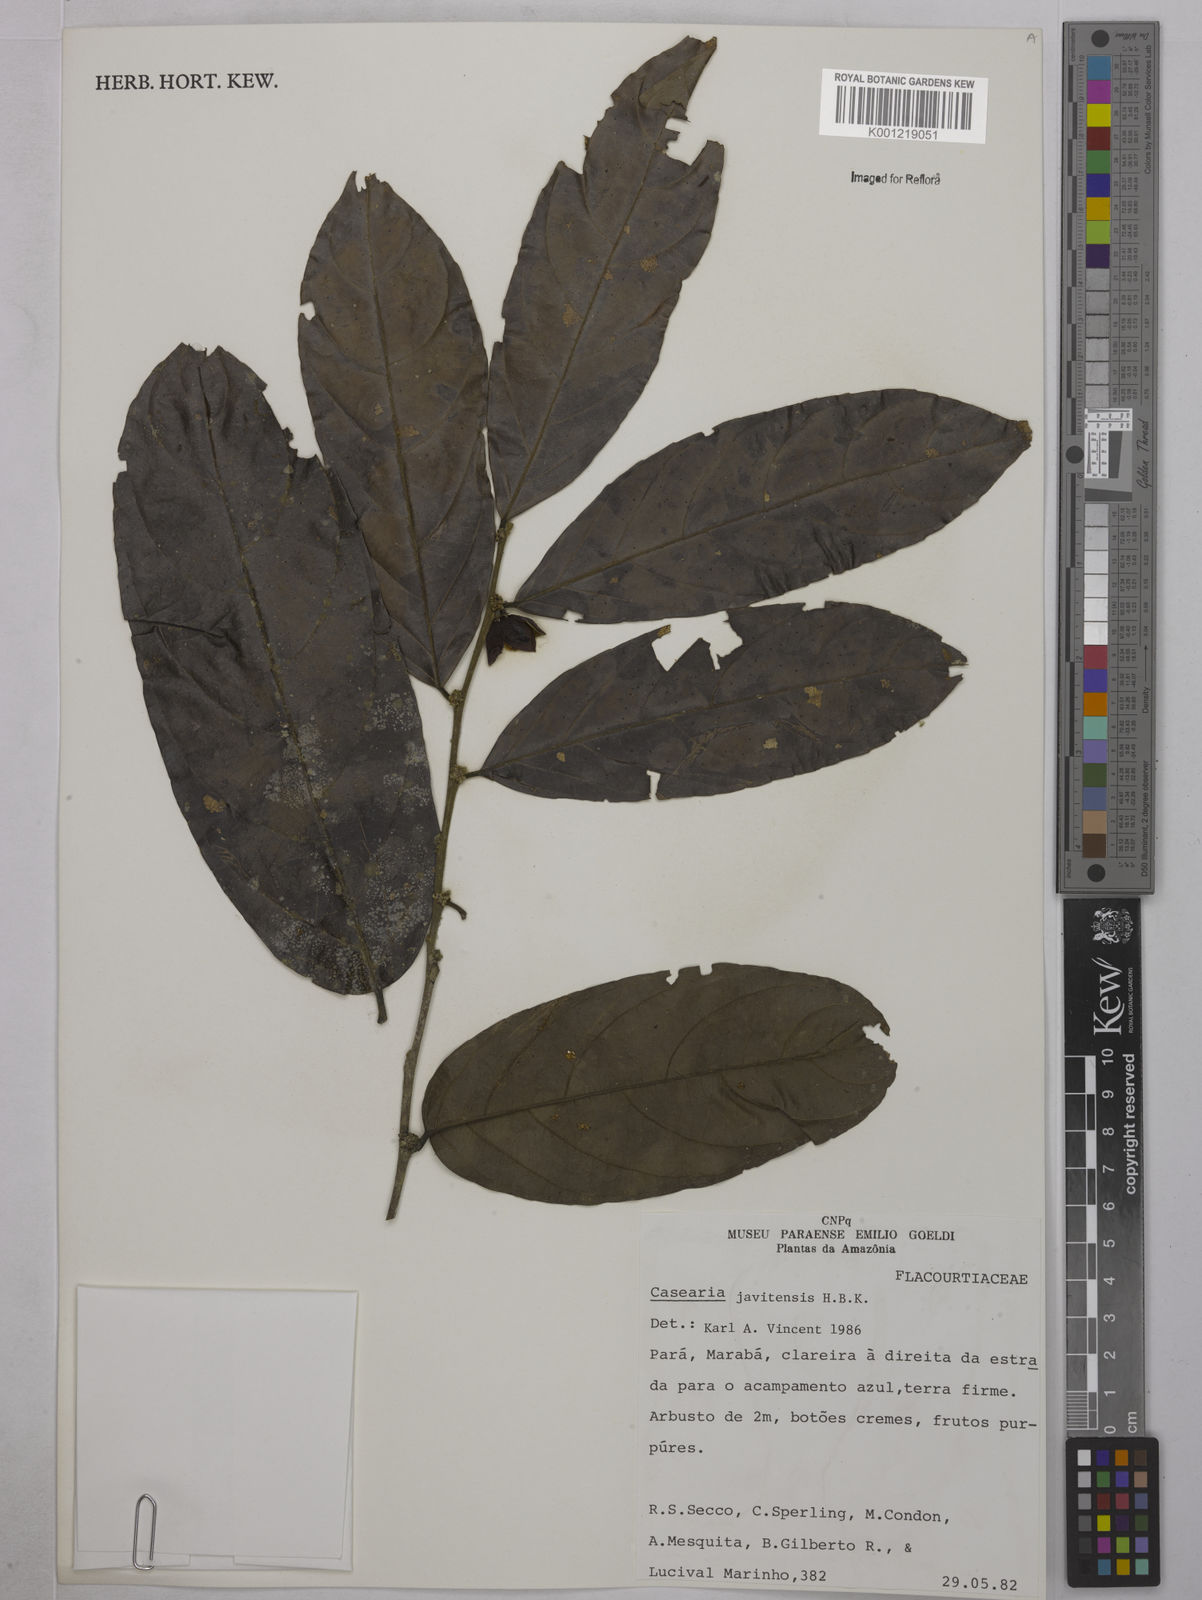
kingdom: Plantae
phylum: Tracheophyta
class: Magnoliopsida
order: Malpighiales
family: Salicaceae
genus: Piparea
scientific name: Piparea multiflora
